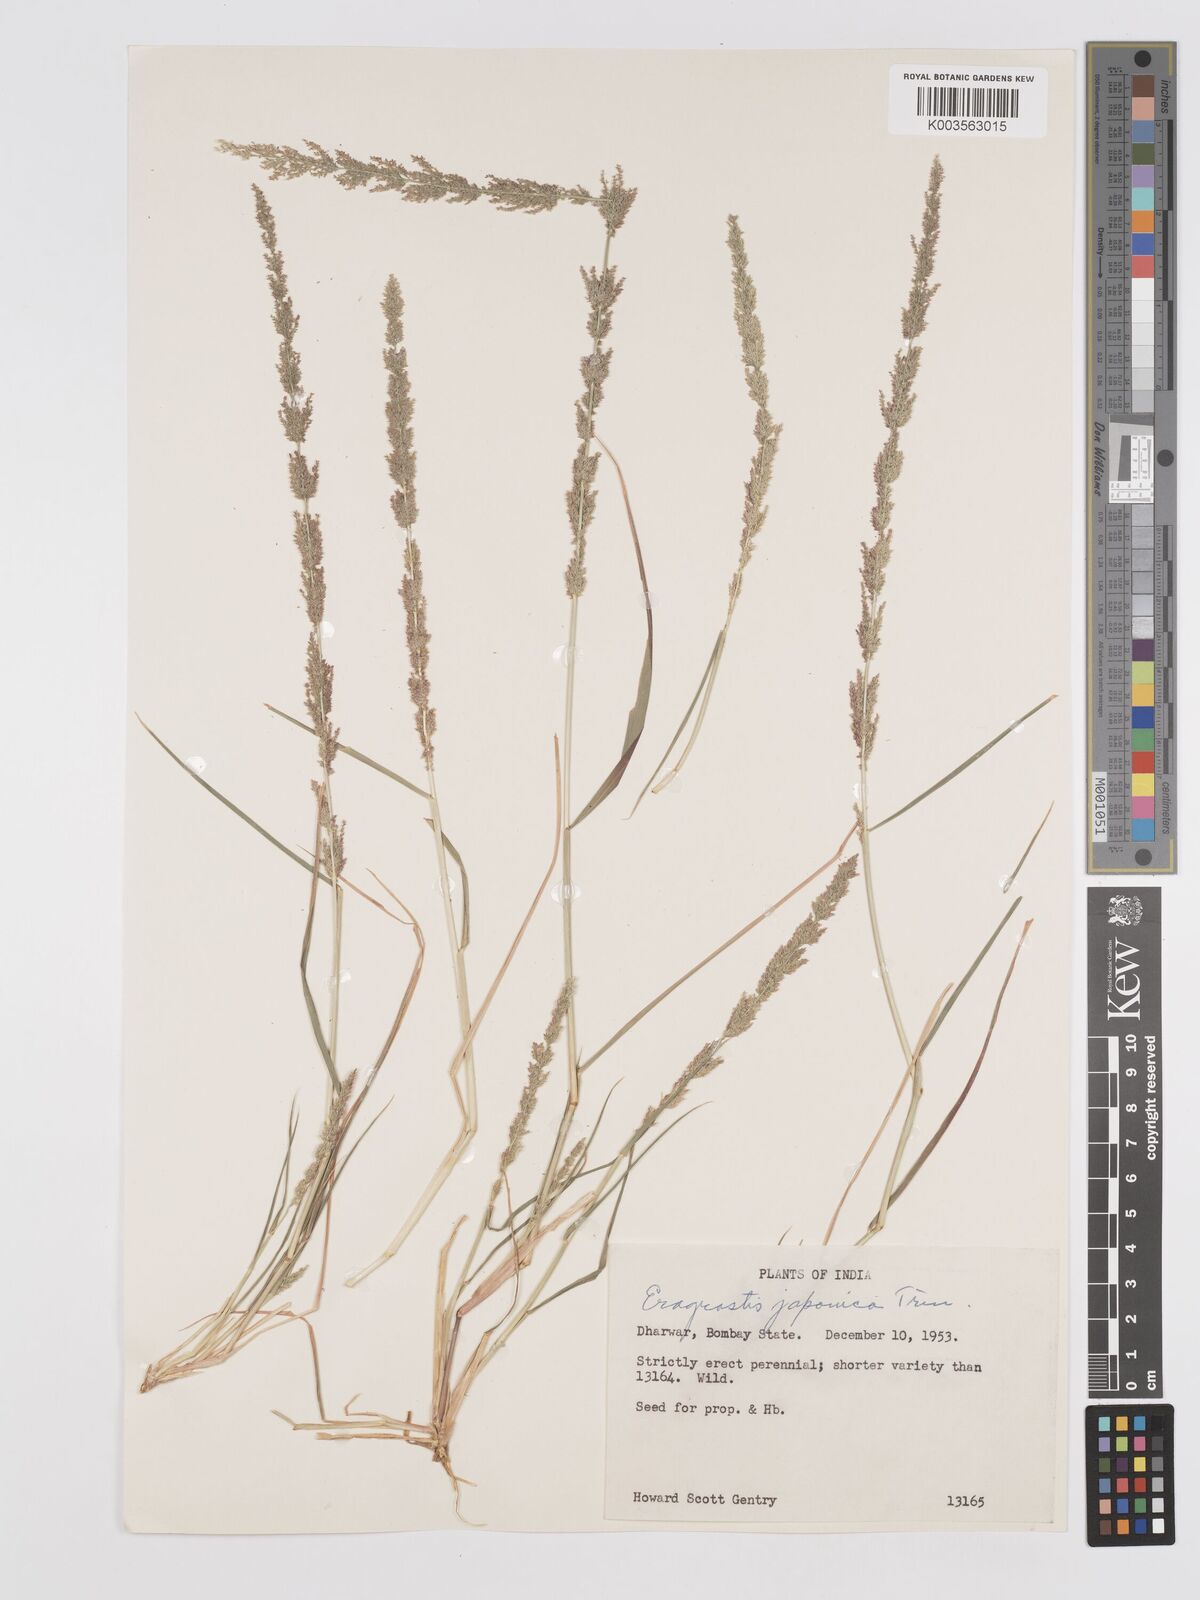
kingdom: Plantae
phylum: Tracheophyta
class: Liliopsida
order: Poales
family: Poaceae
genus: Eragrostis
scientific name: Eragrostis japonica
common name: Pond lovegrass
